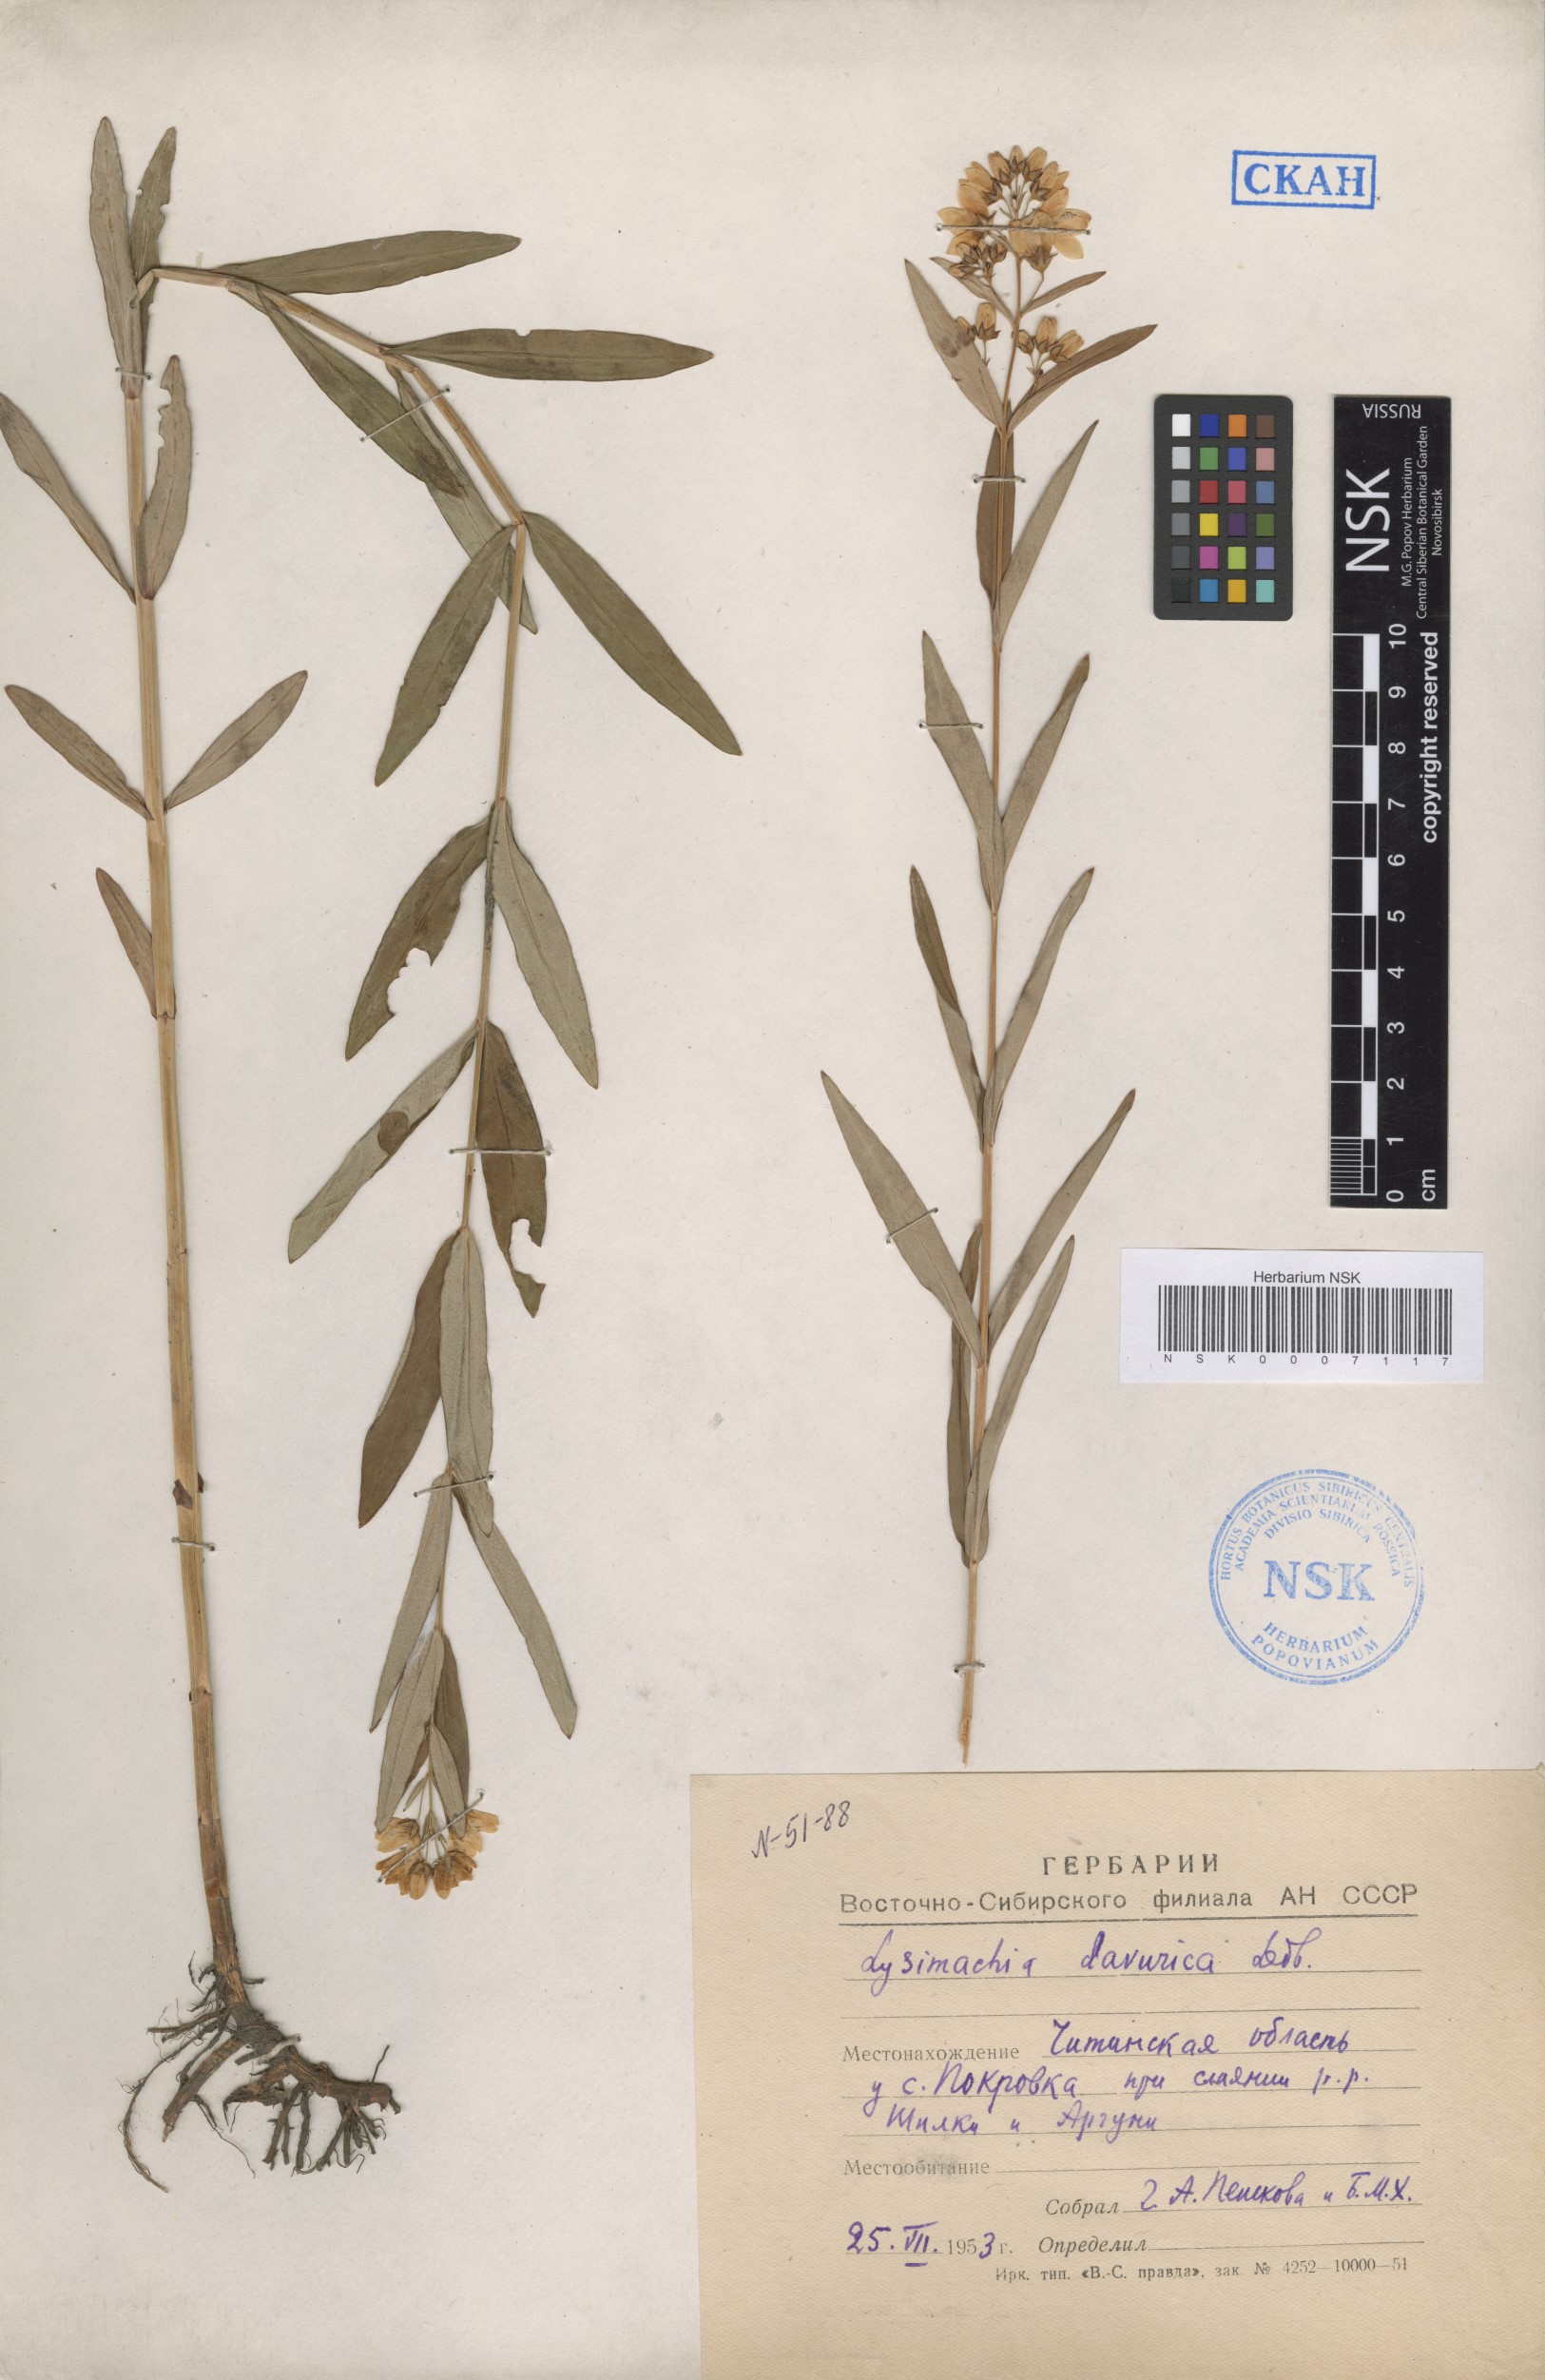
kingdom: Plantae
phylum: Tracheophyta
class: Magnoliopsida
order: Ericales
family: Primulaceae
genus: Lysimachia
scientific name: Lysimachia davurica
